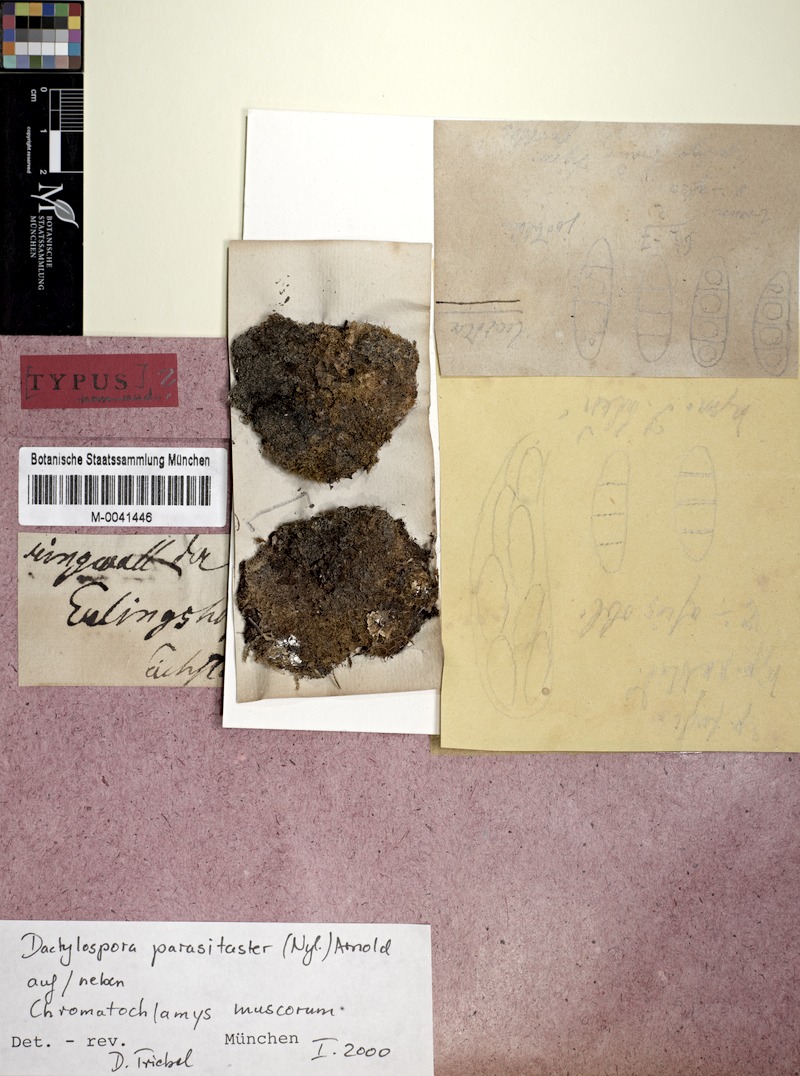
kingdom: Fungi
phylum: Ascomycota
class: Lecanoromycetes
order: Ostropales
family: Thelenellaceae
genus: Thelenella
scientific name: Thelenella muscorum
